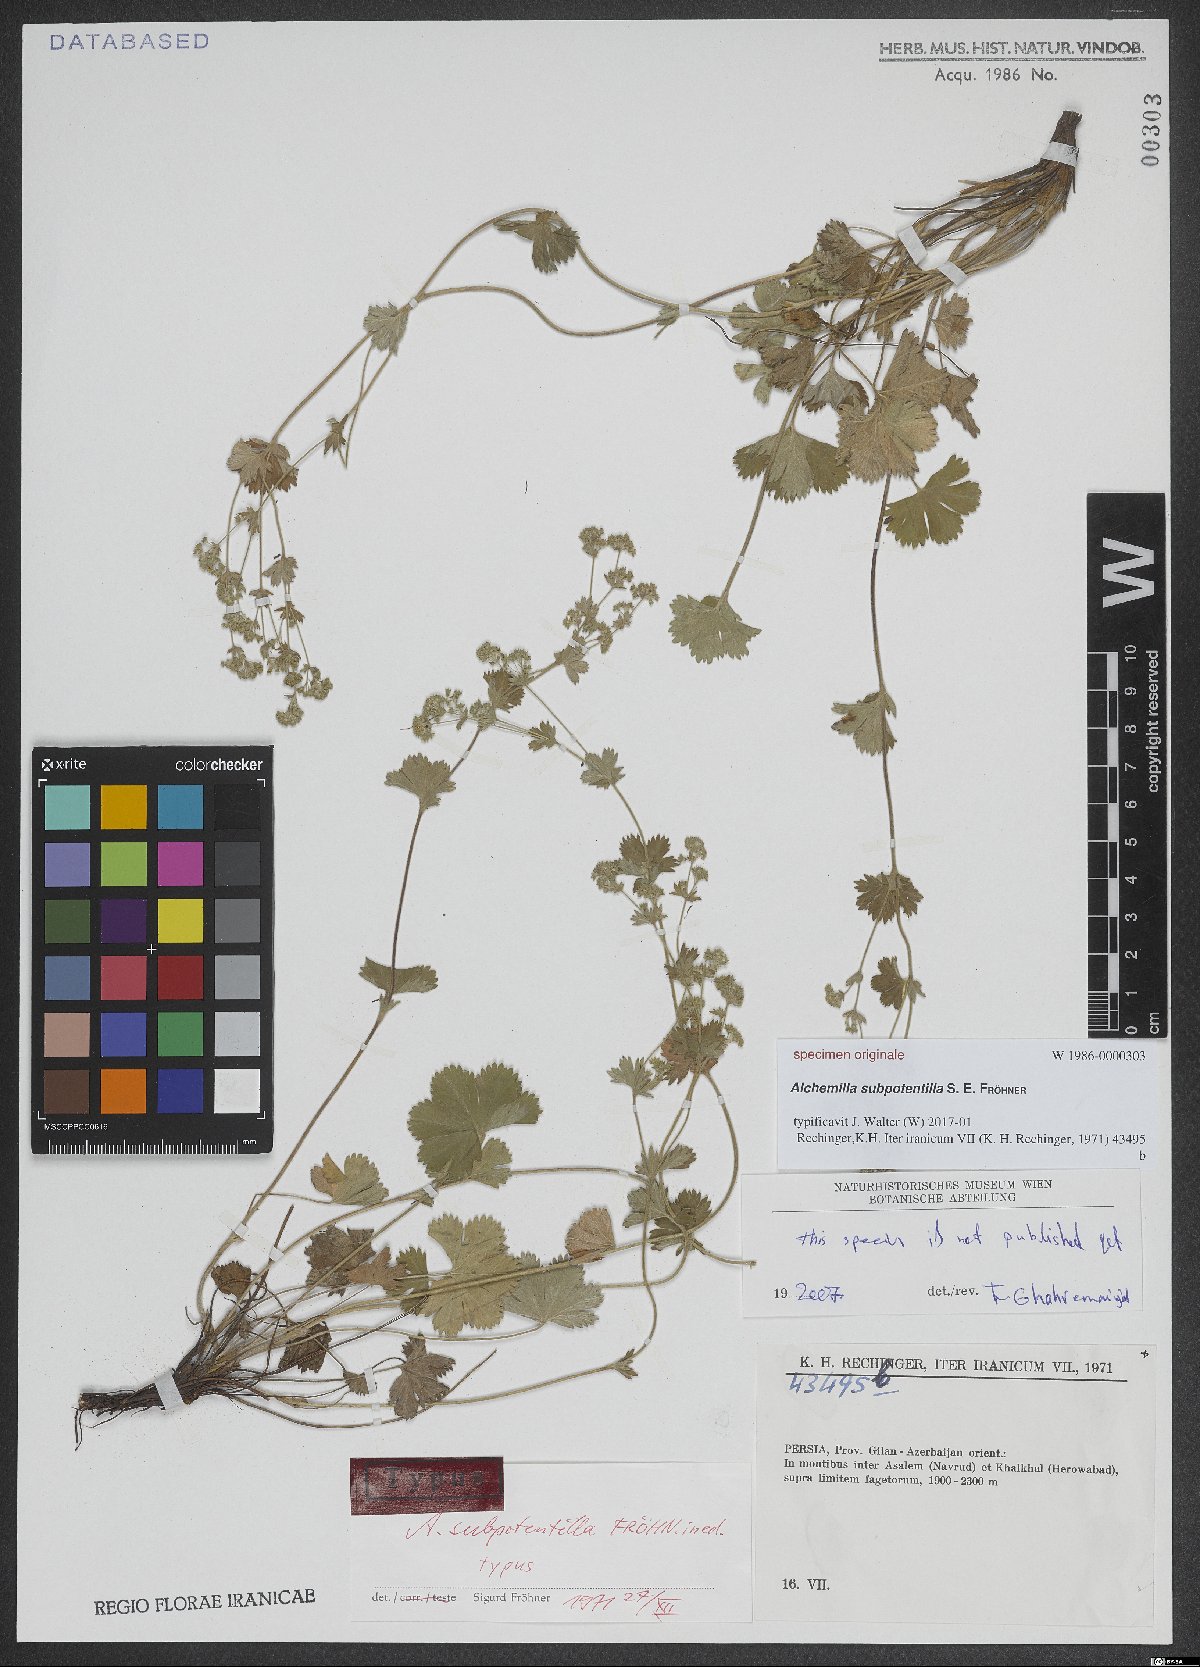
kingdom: Plantae
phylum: Tracheophyta
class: Magnoliopsida
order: Rosales
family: Rosaceae
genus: Alchemilla
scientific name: Alchemilla
